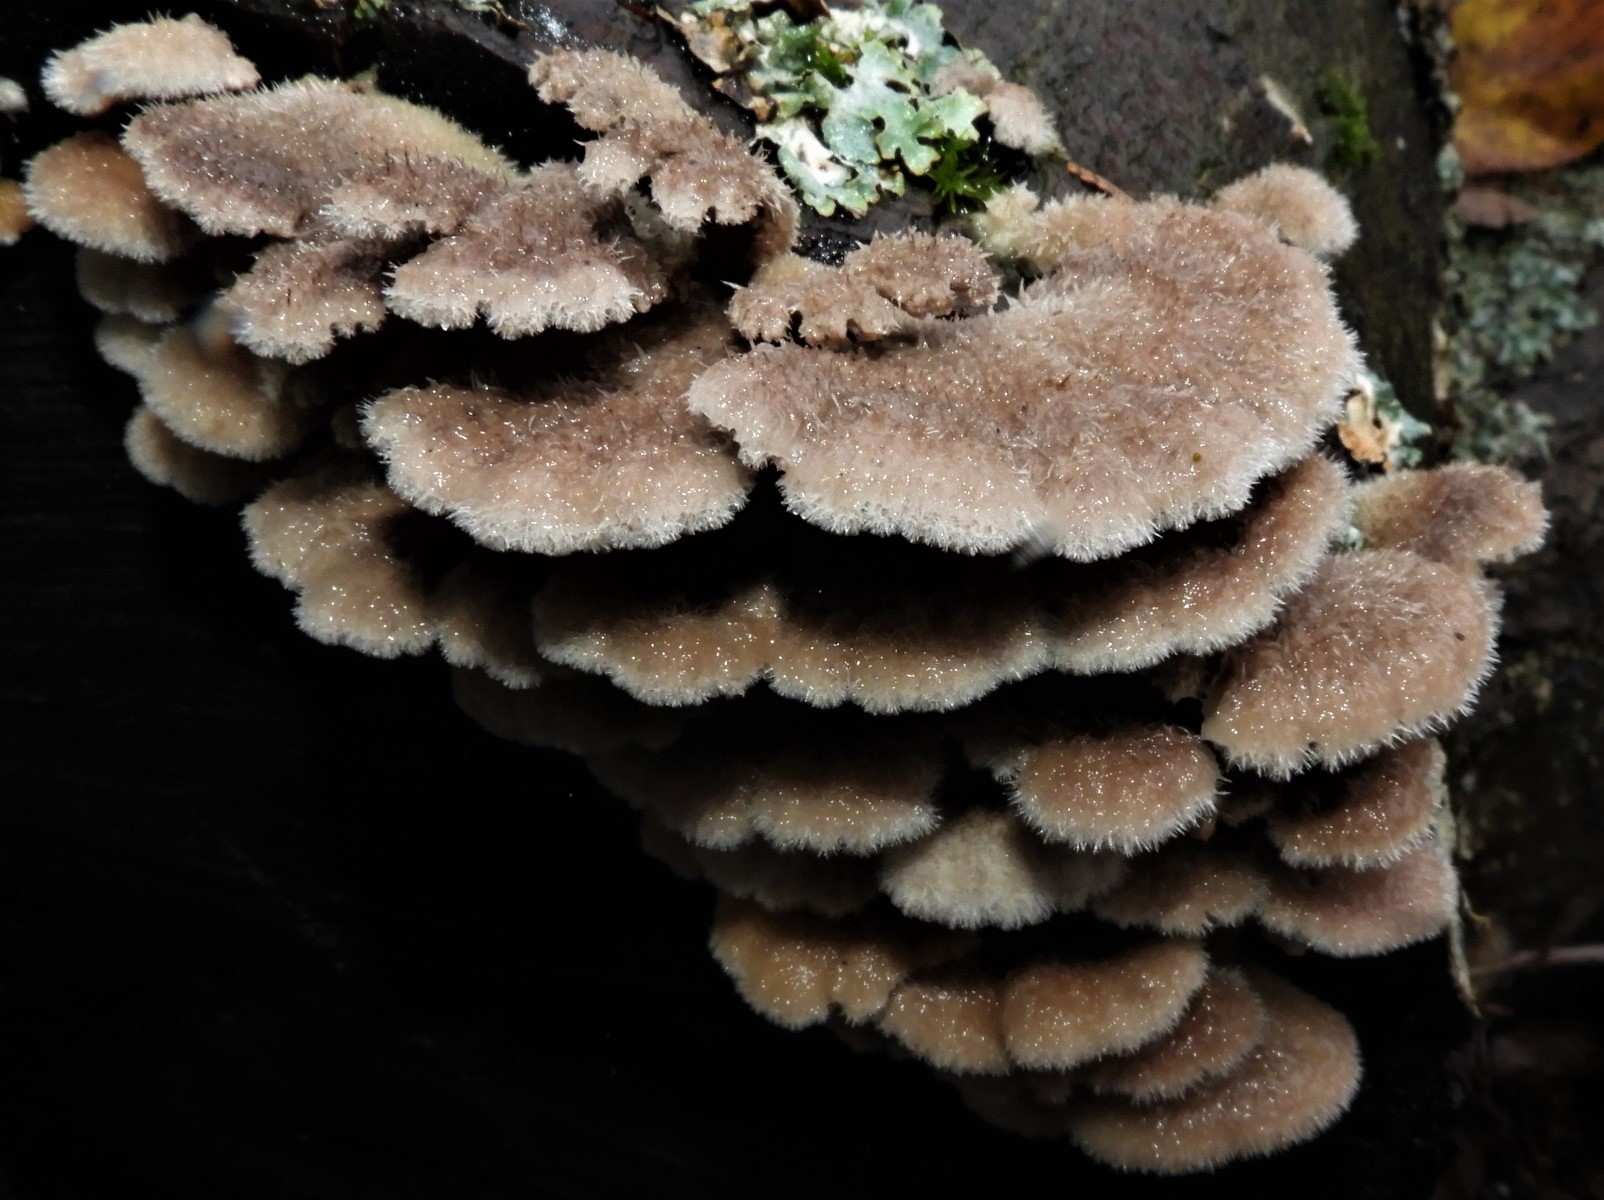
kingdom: Fungi
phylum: Basidiomycota
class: Agaricomycetes
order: Agaricales
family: Schizophyllaceae
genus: Schizophyllum
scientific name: Schizophyllum commune
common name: kløvblad
